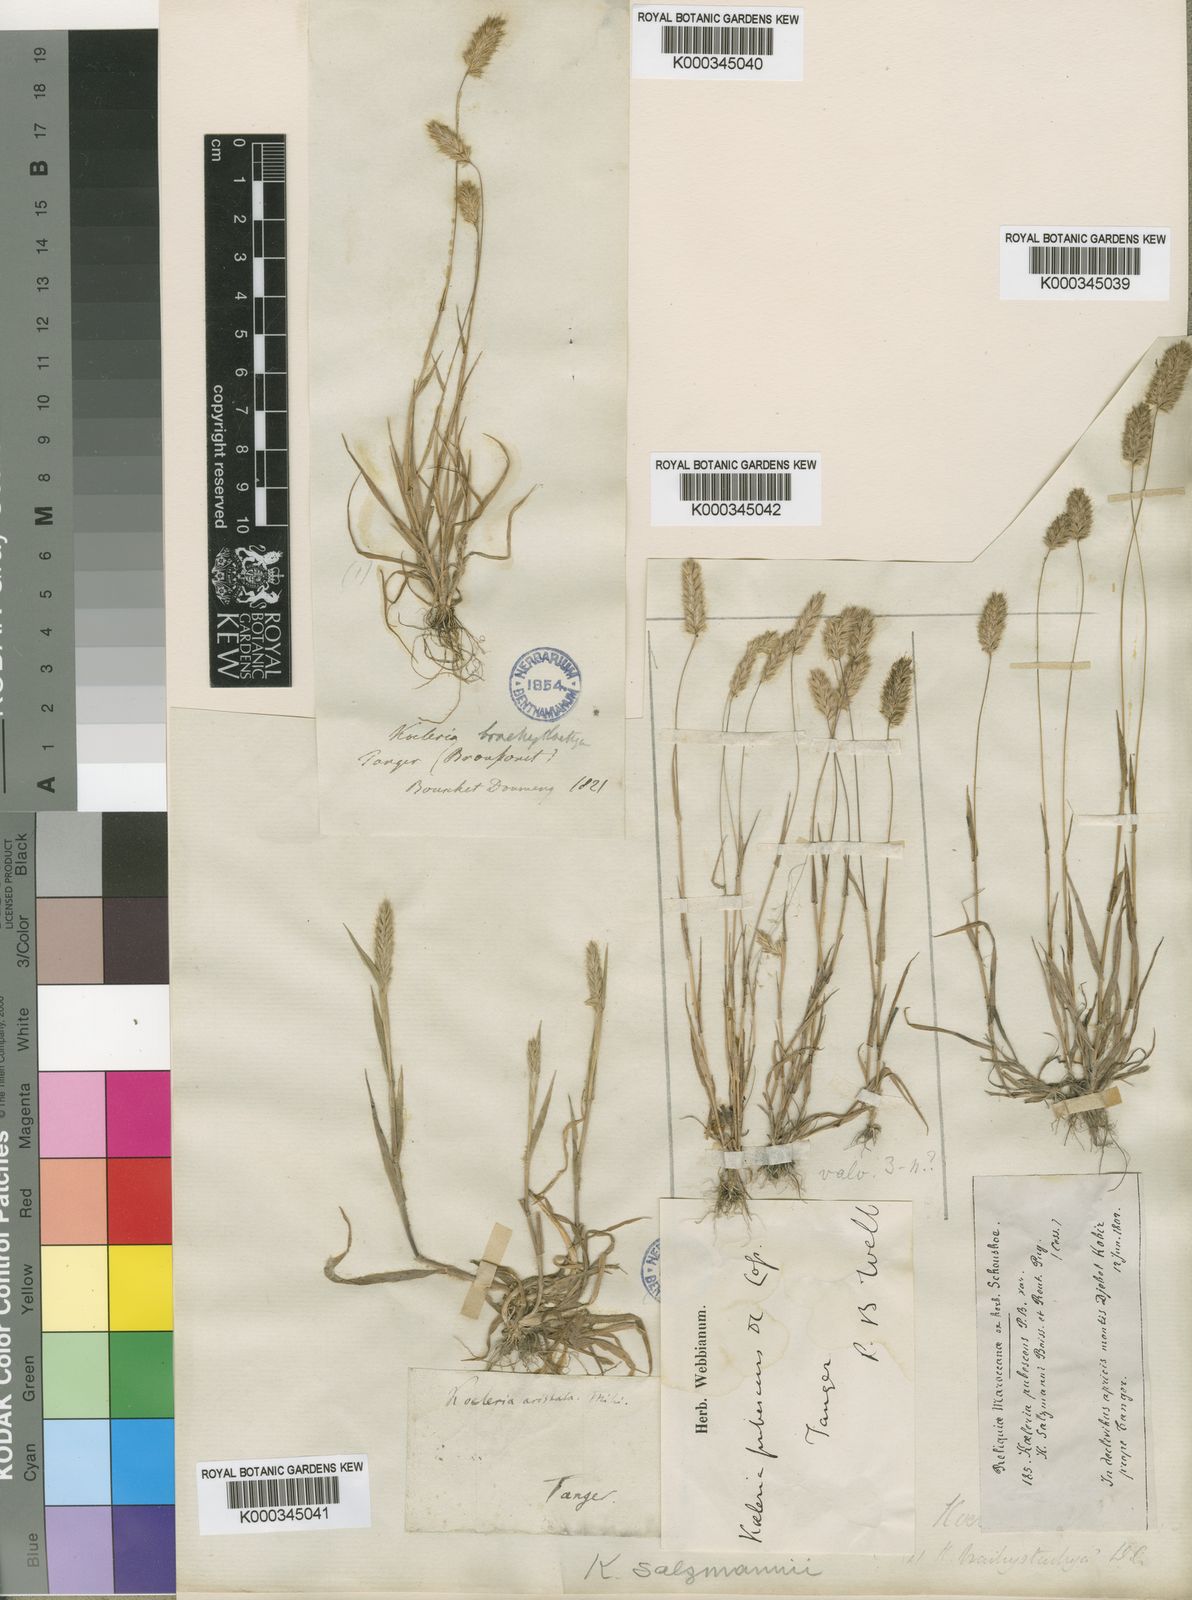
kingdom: Plantae
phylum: Tracheophyta
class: Liliopsida
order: Poales
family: Poaceae
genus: Rostraria
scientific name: Rostraria salzmannii
